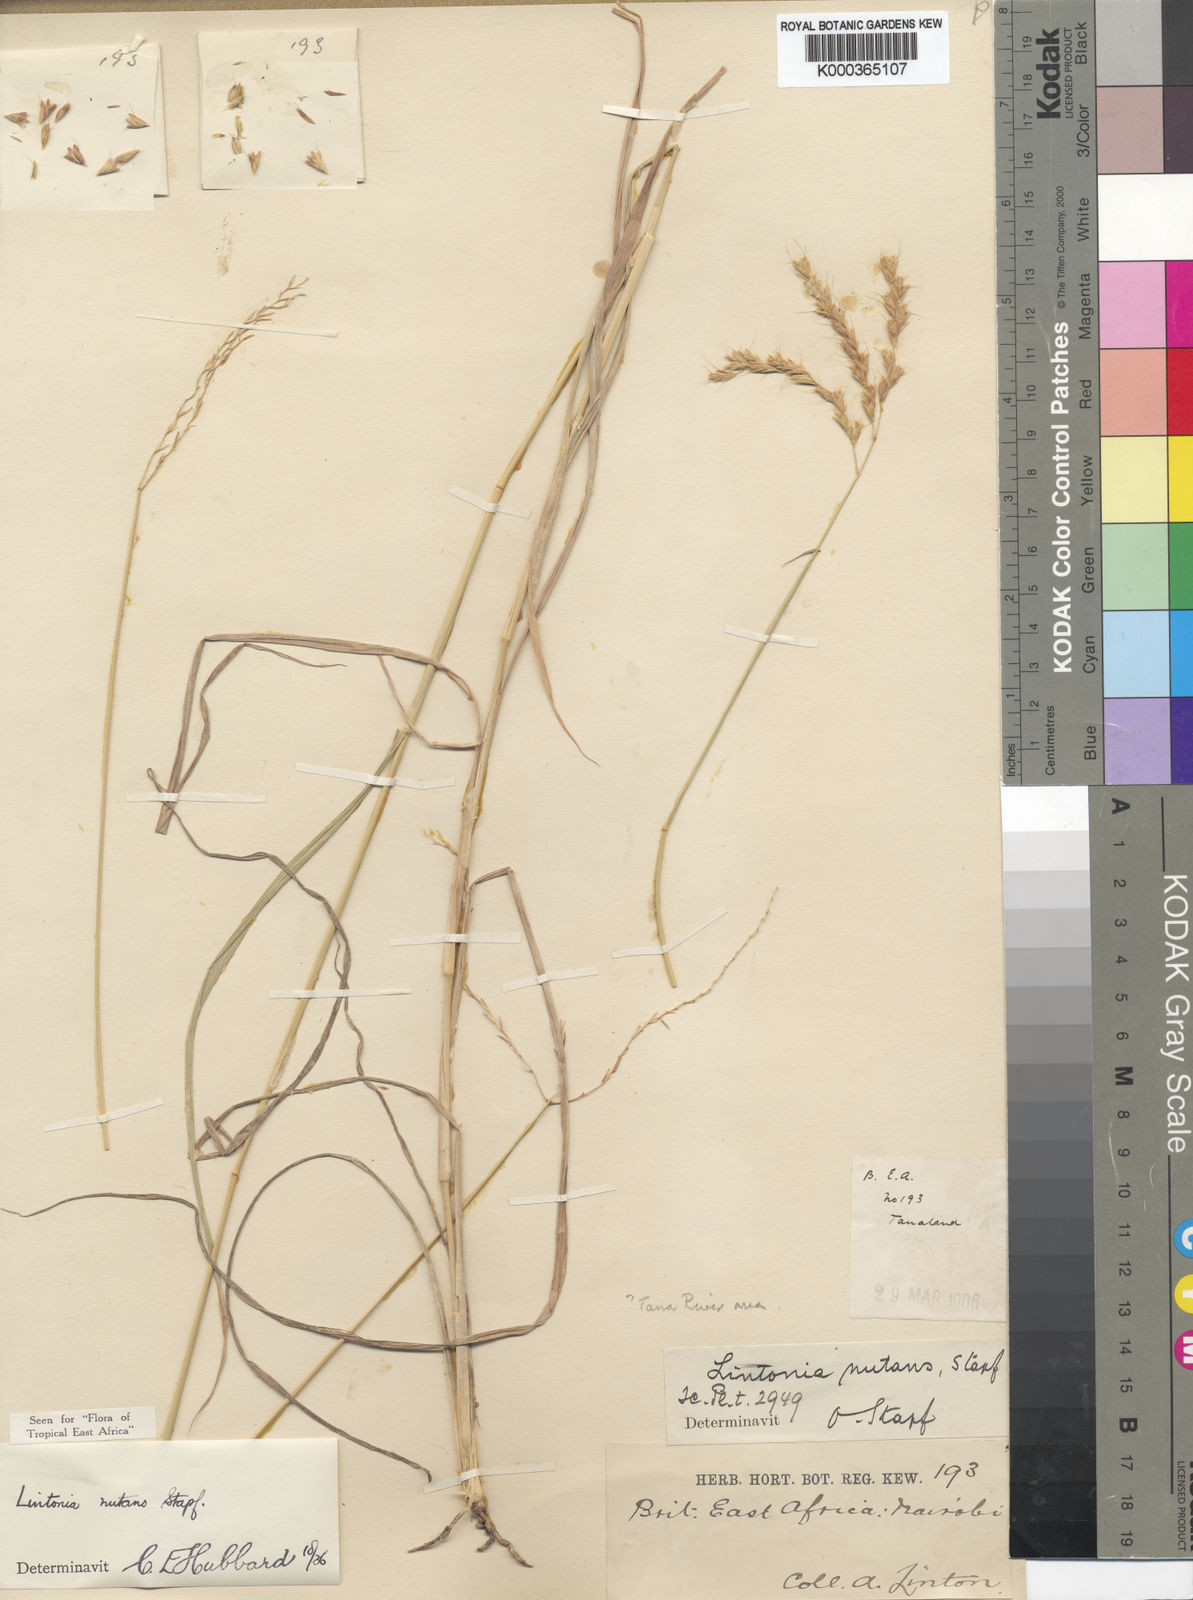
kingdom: Plantae
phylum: Tracheophyta
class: Liliopsida
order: Poales
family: Poaceae
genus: Chloris
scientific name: Chloris nutans
